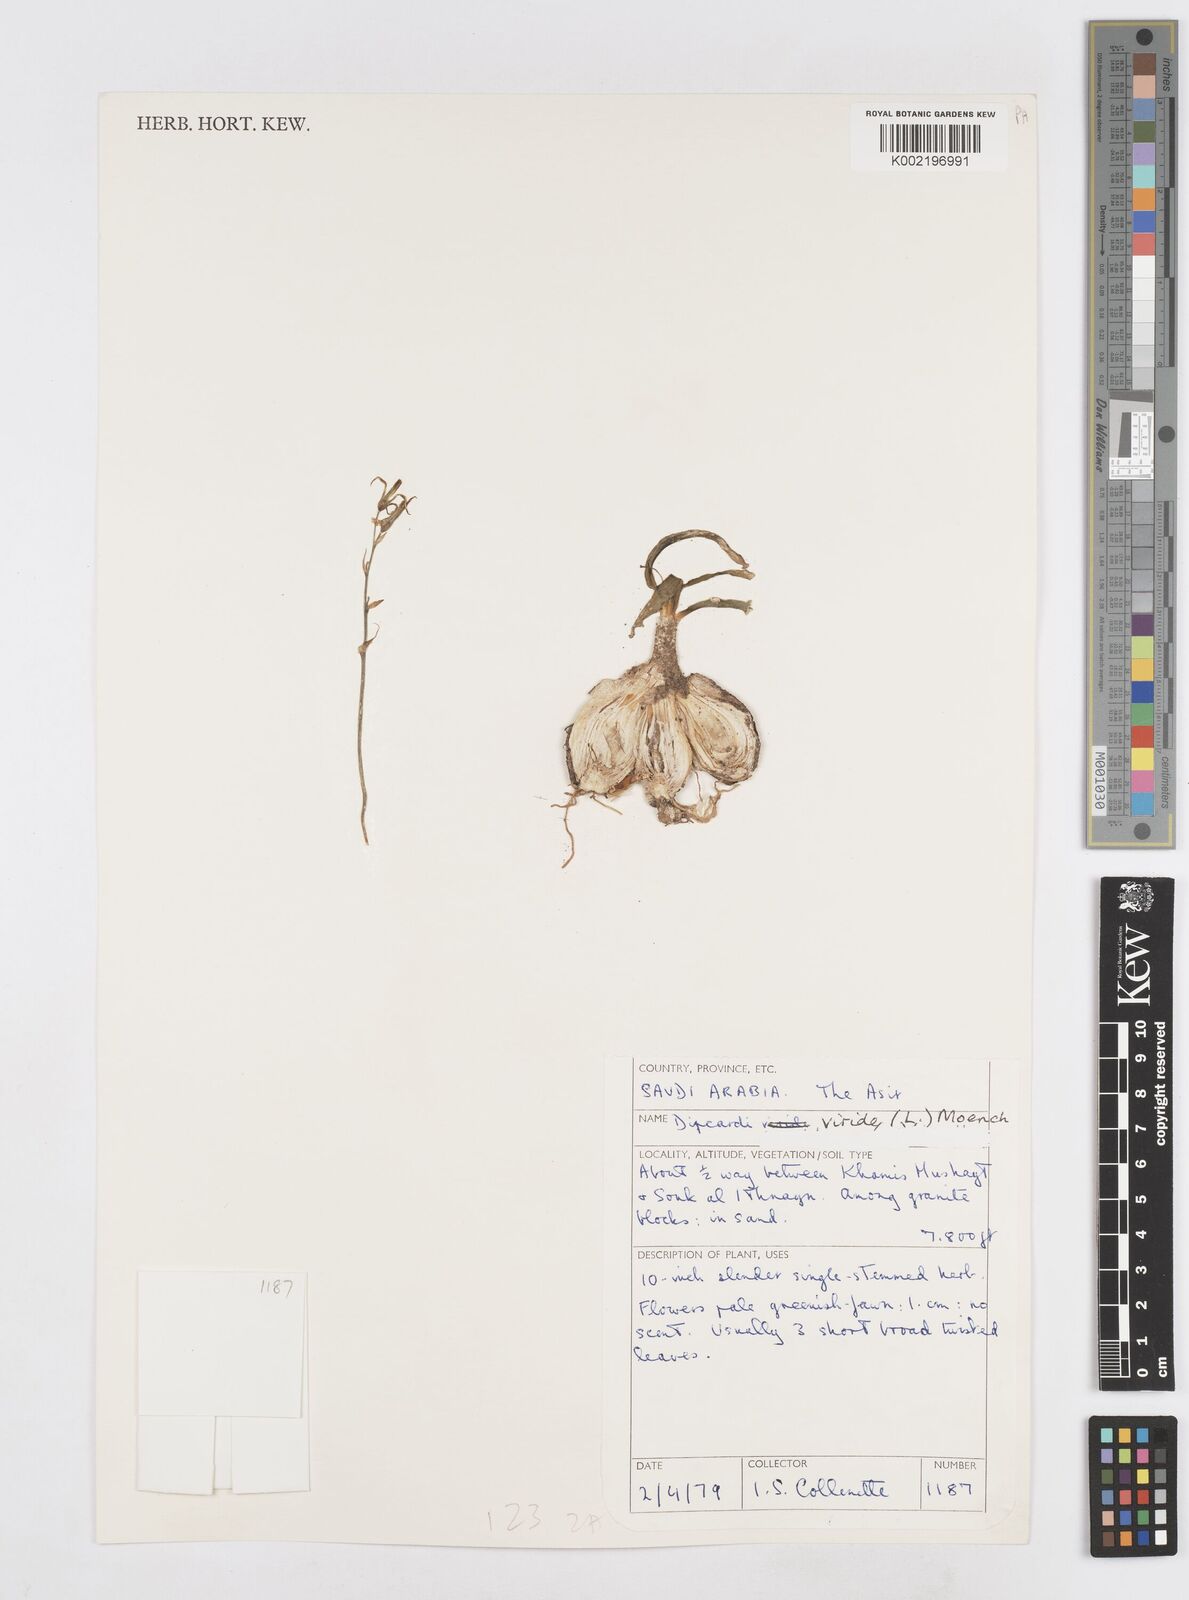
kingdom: Plantae
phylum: Tracheophyta
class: Liliopsida
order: Asparagales
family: Asparagaceae
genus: Dipcadi
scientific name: Dipcadi viride
